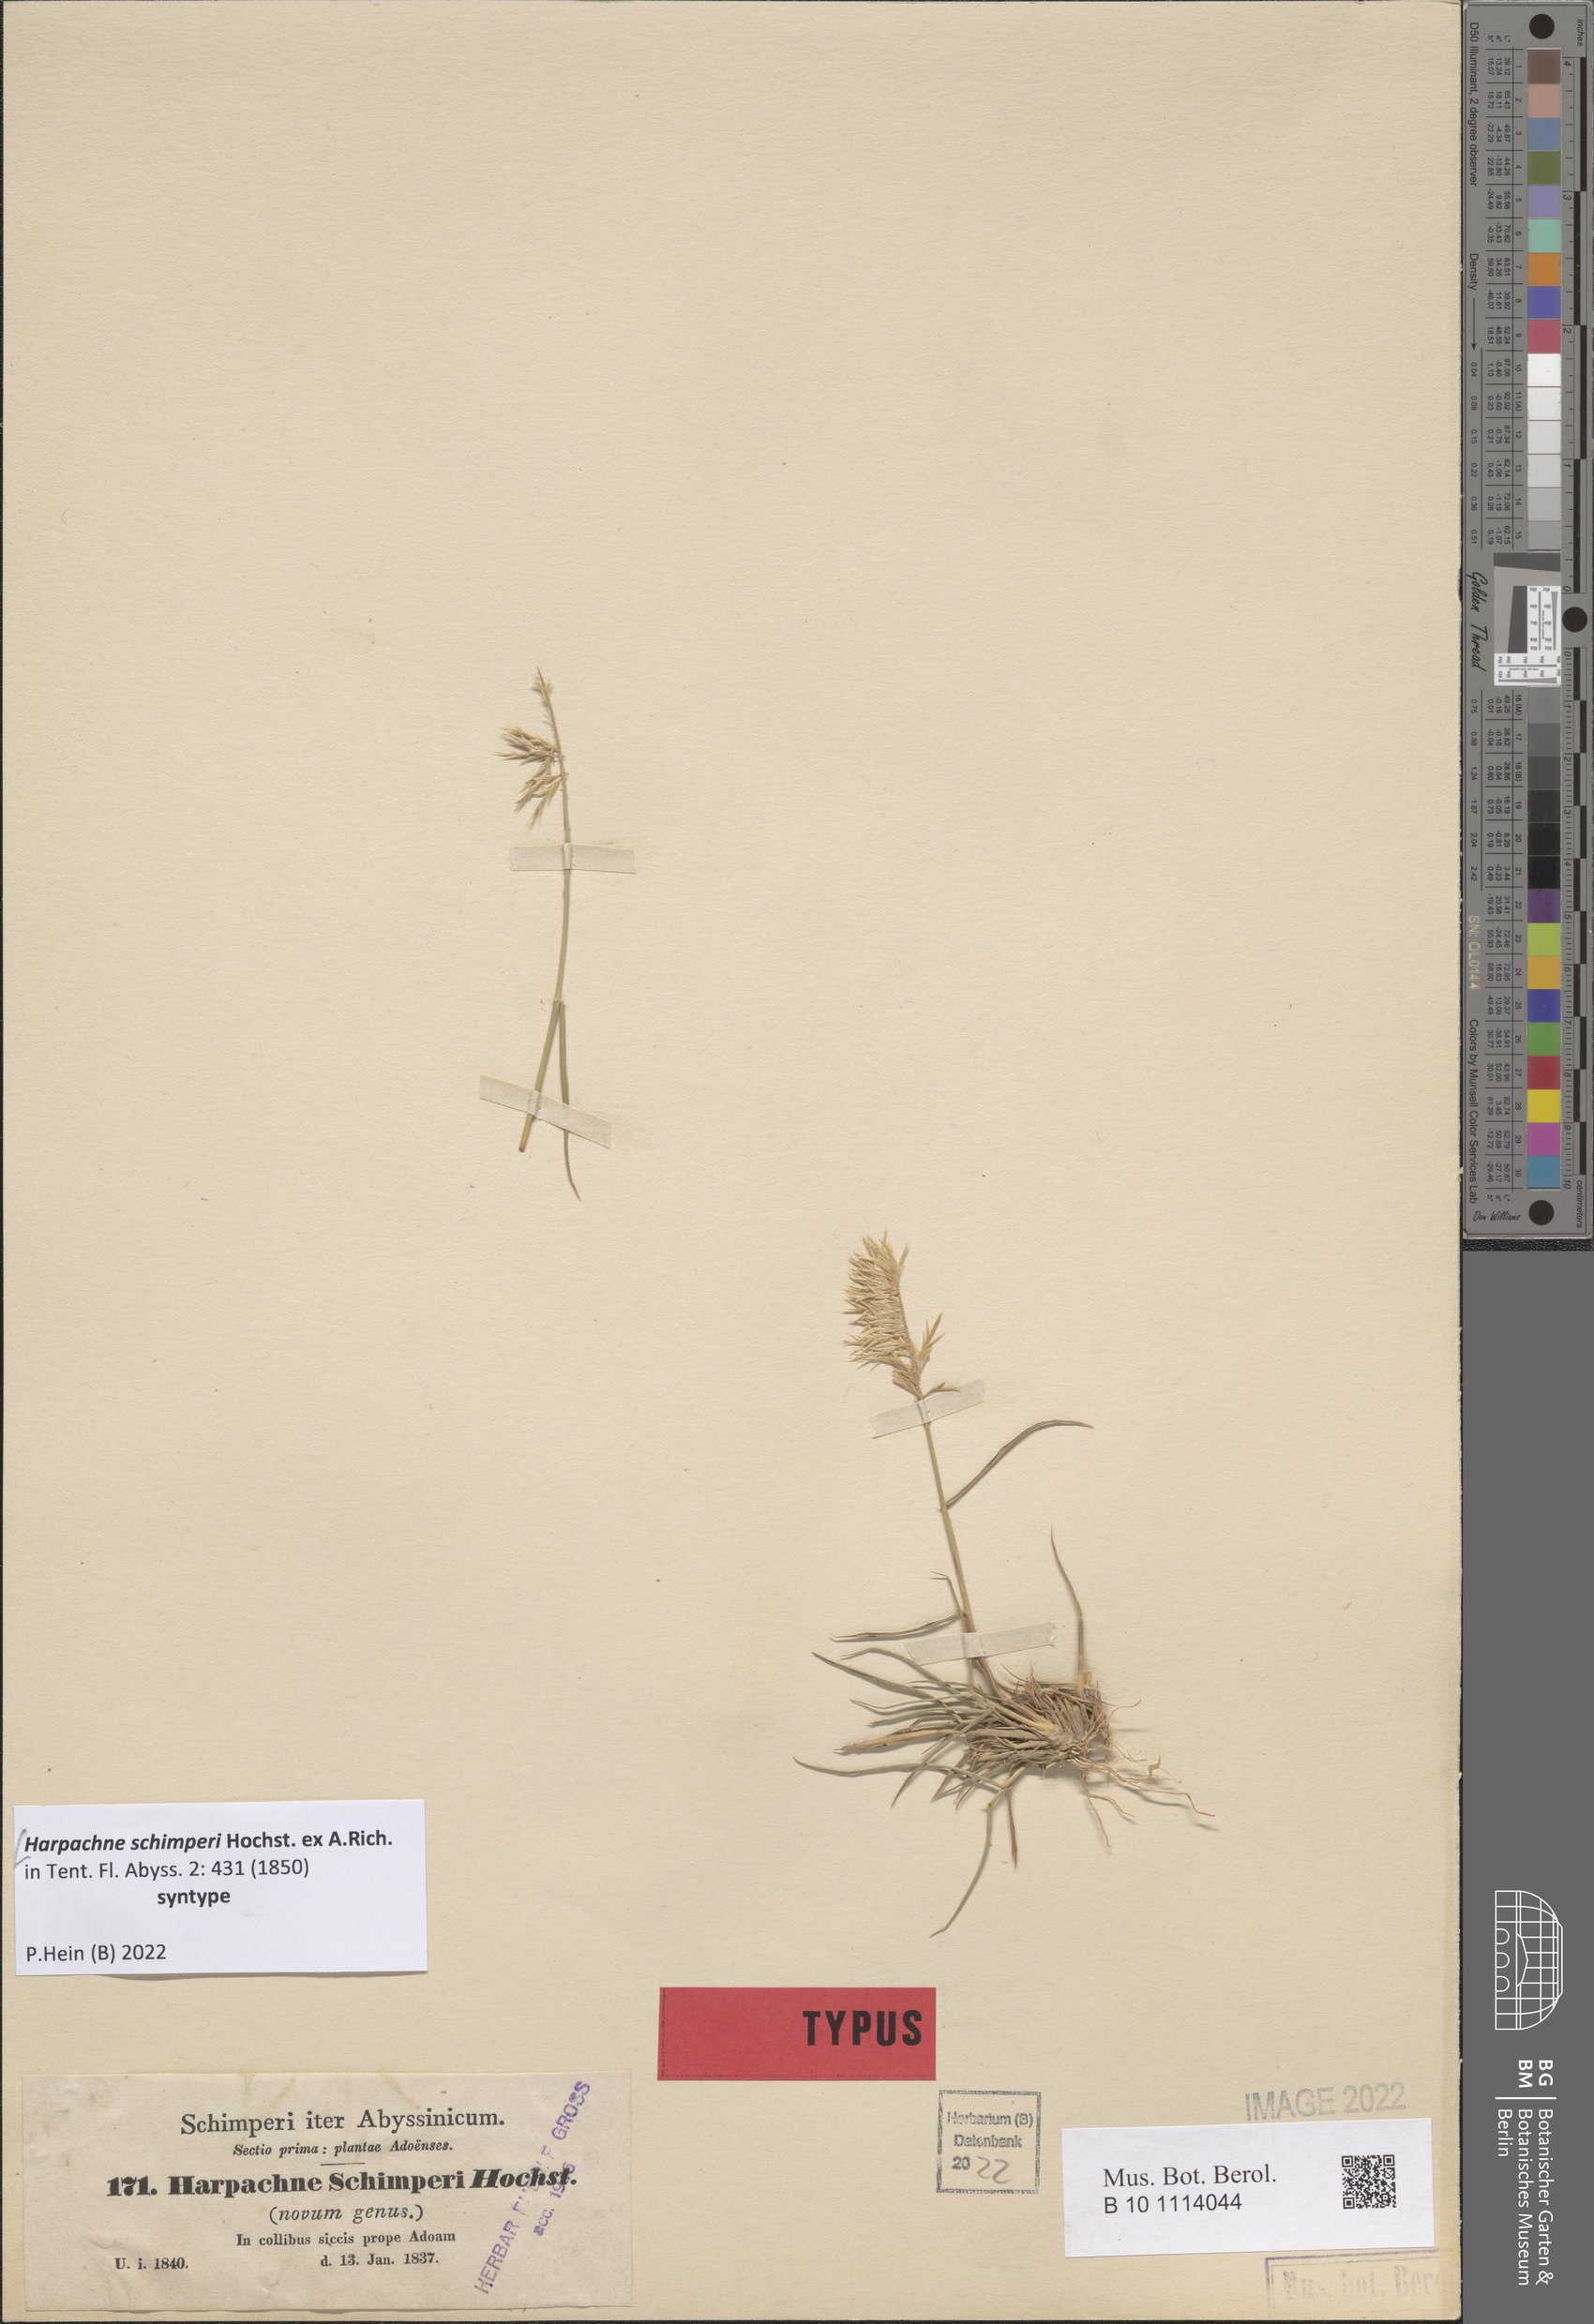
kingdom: Plantae
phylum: Tracheophyta
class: Liliopsida
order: Poales
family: Poaceae
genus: Harpachne
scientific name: Harpachne schimperi
